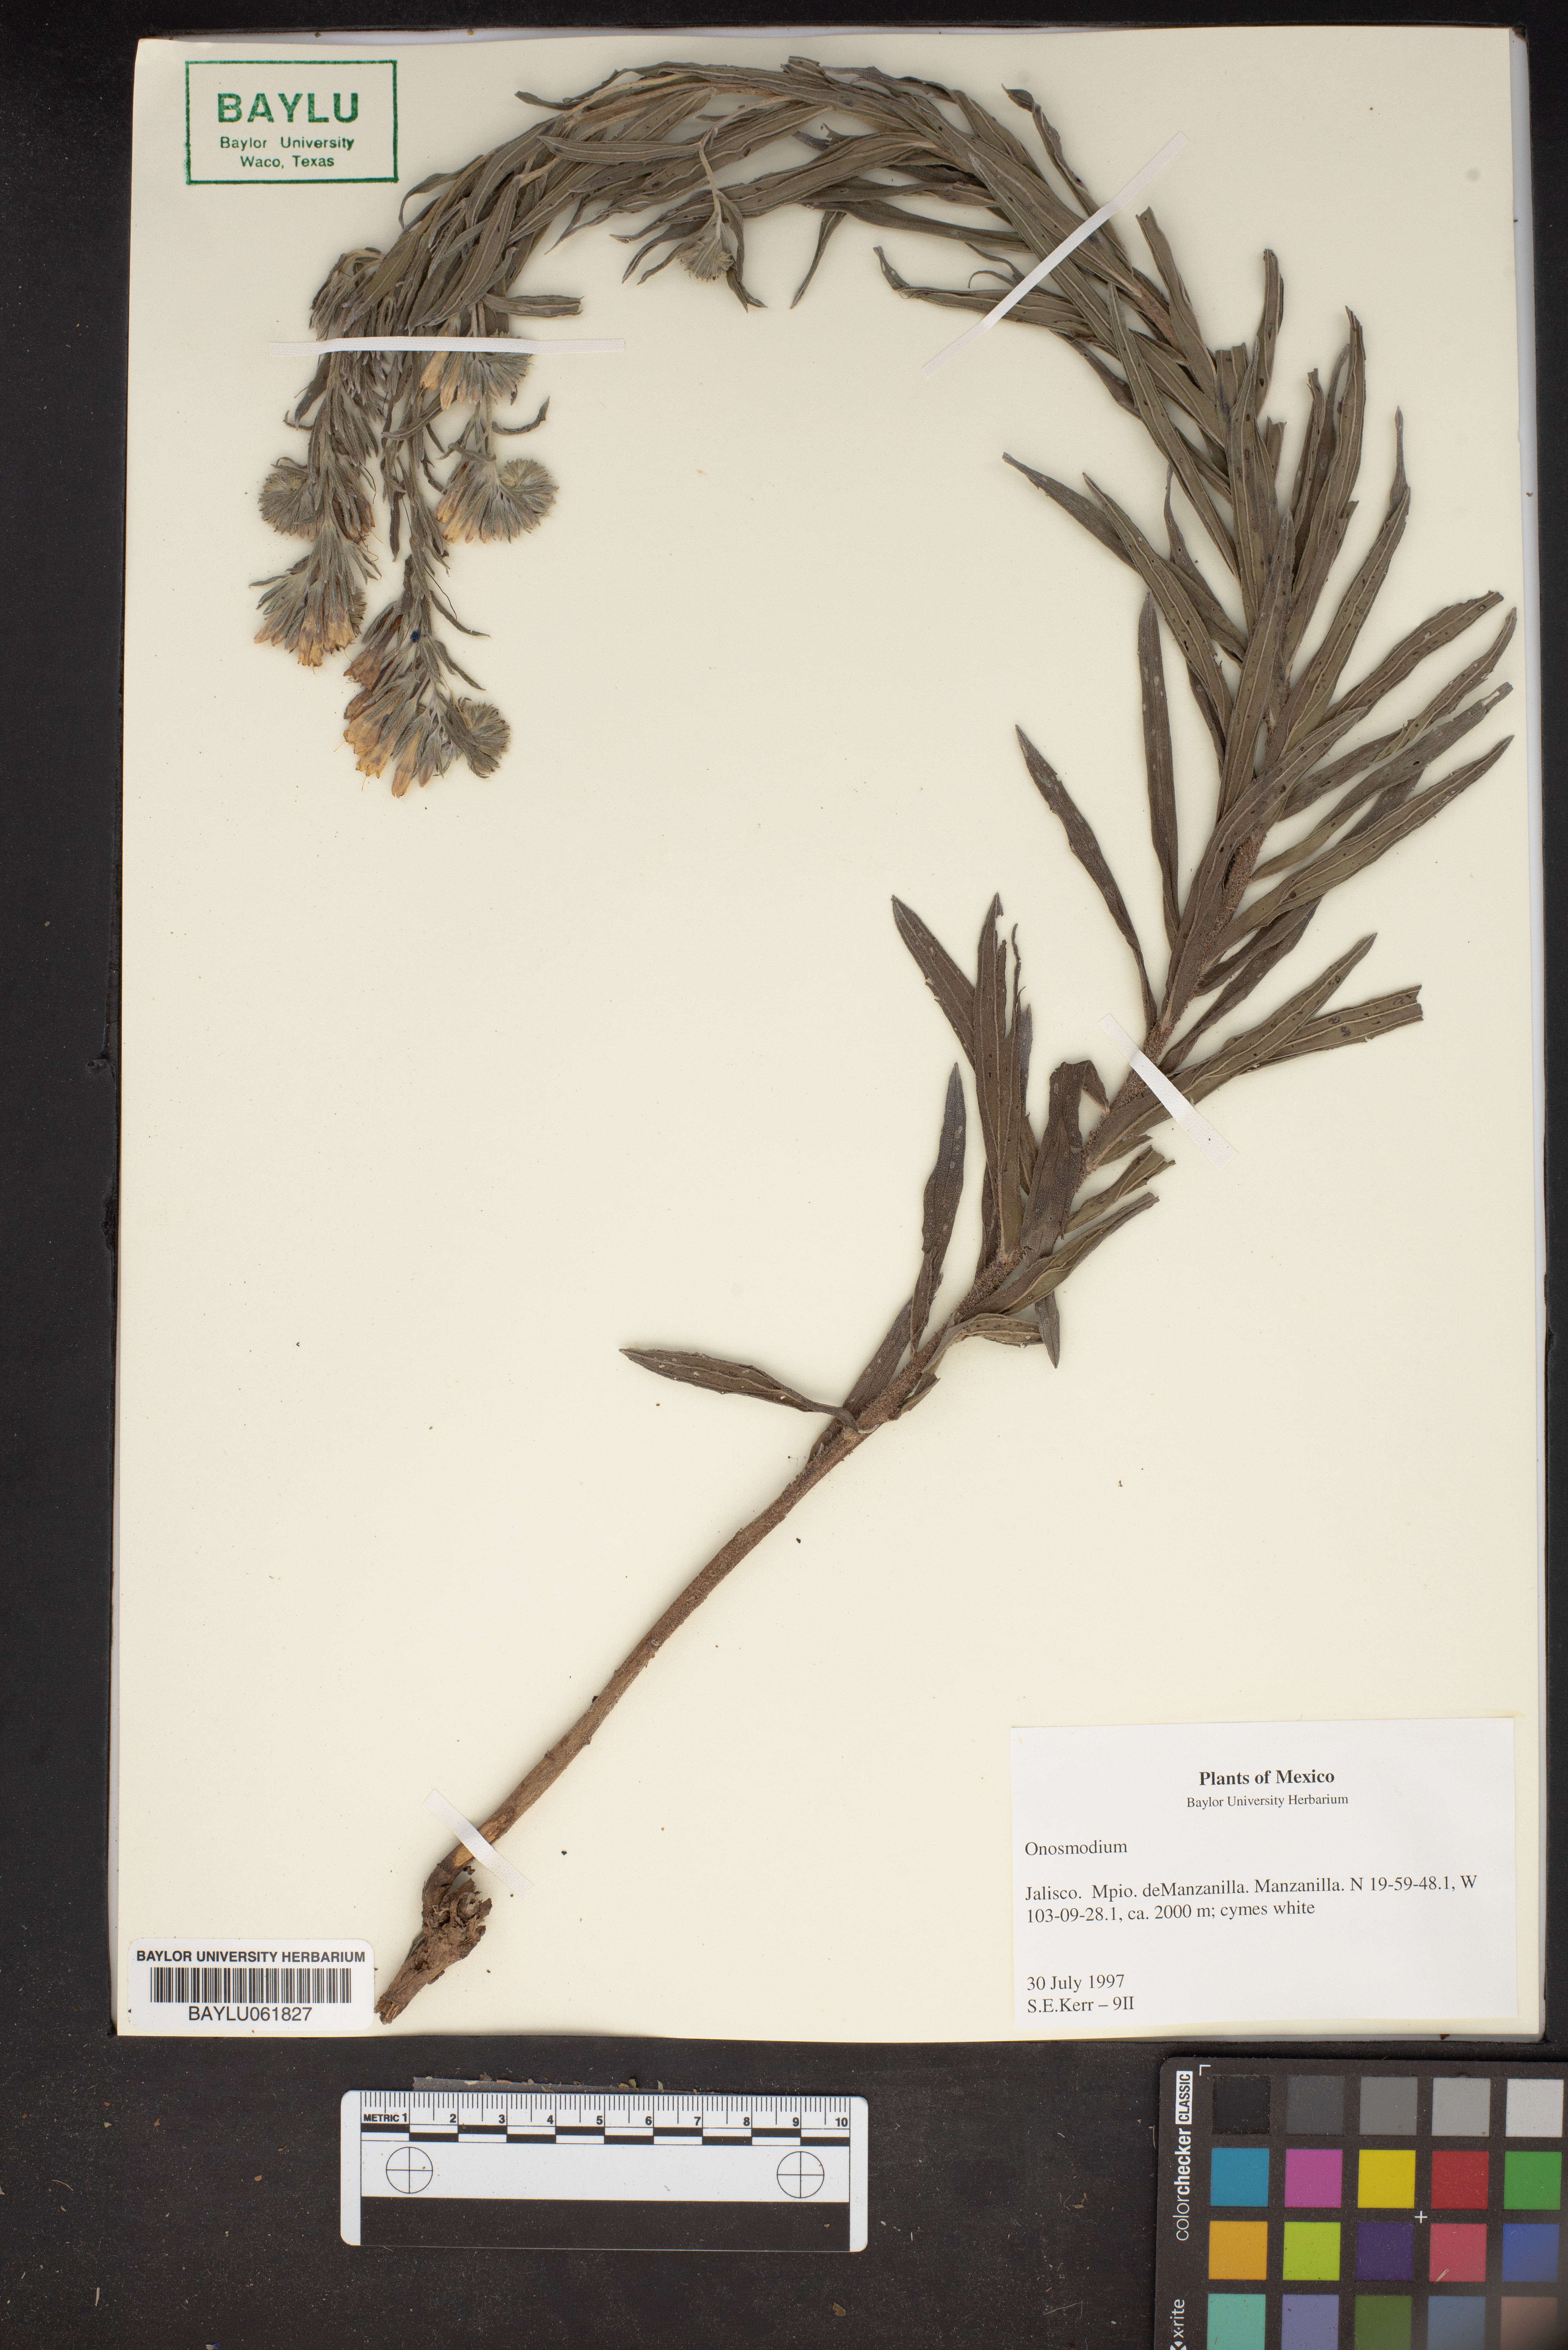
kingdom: Plantae
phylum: Tracheophyta
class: Magnoliopsida
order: Boraginales
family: Boraginaceae
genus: Lithospermum
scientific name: Lithospermum
